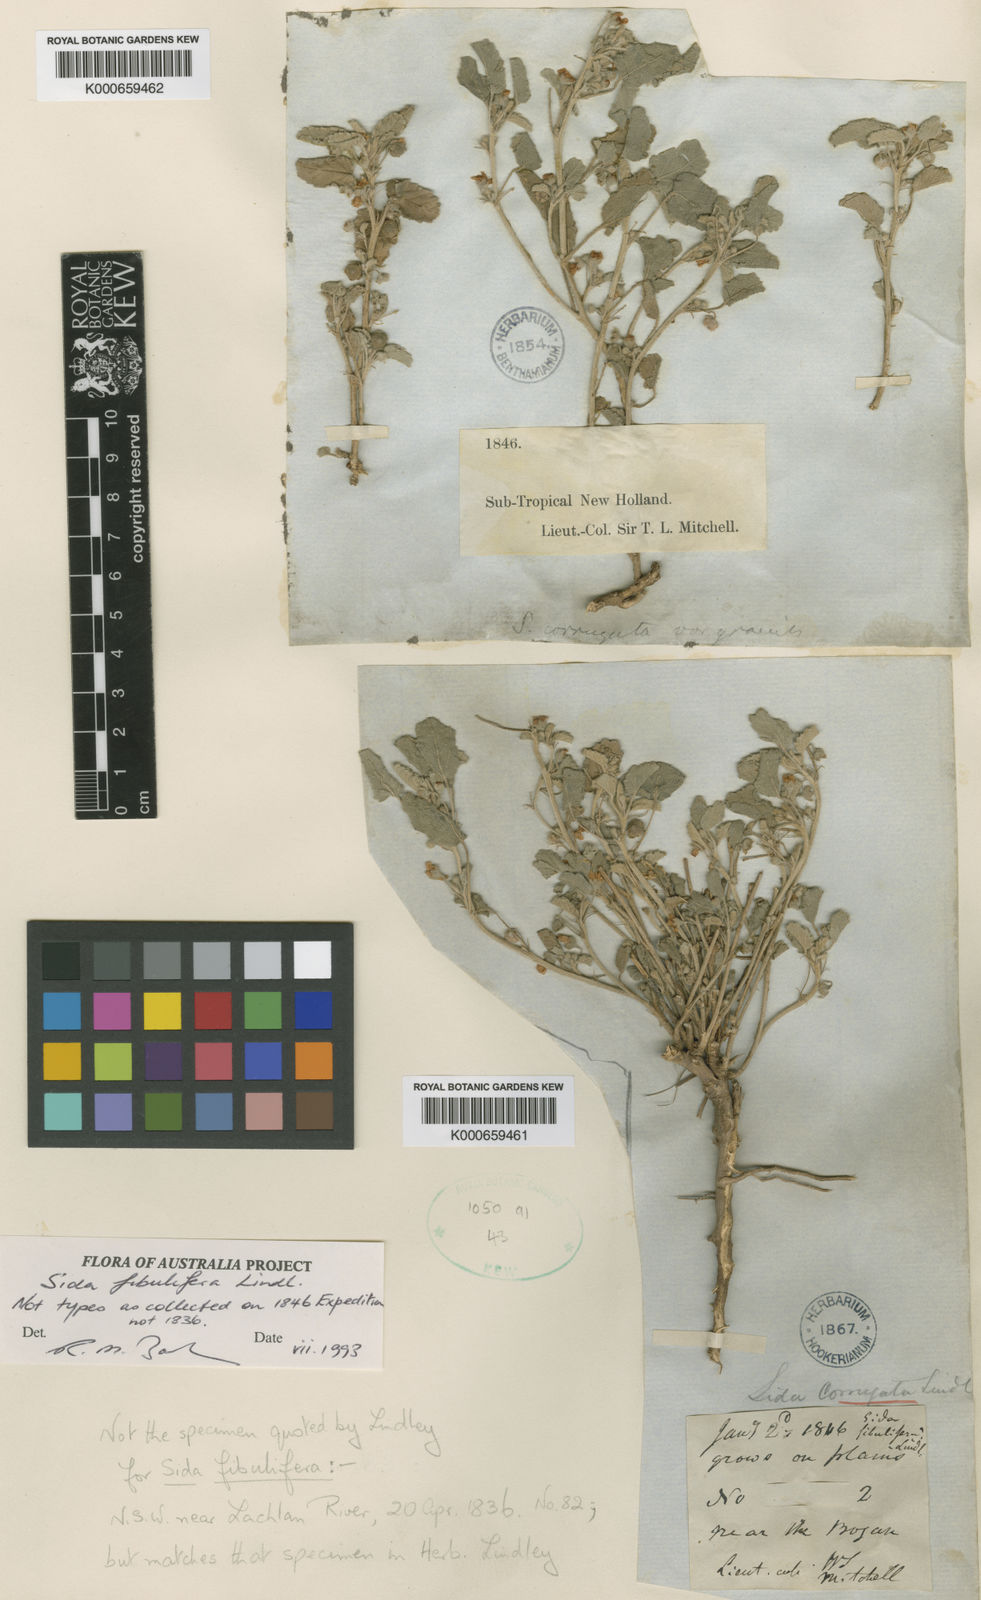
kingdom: Plantae
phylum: Tracheophyta
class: Magnoliopsida
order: Malvales
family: Malvaceae
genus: Sida
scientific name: Sida fibulifera
